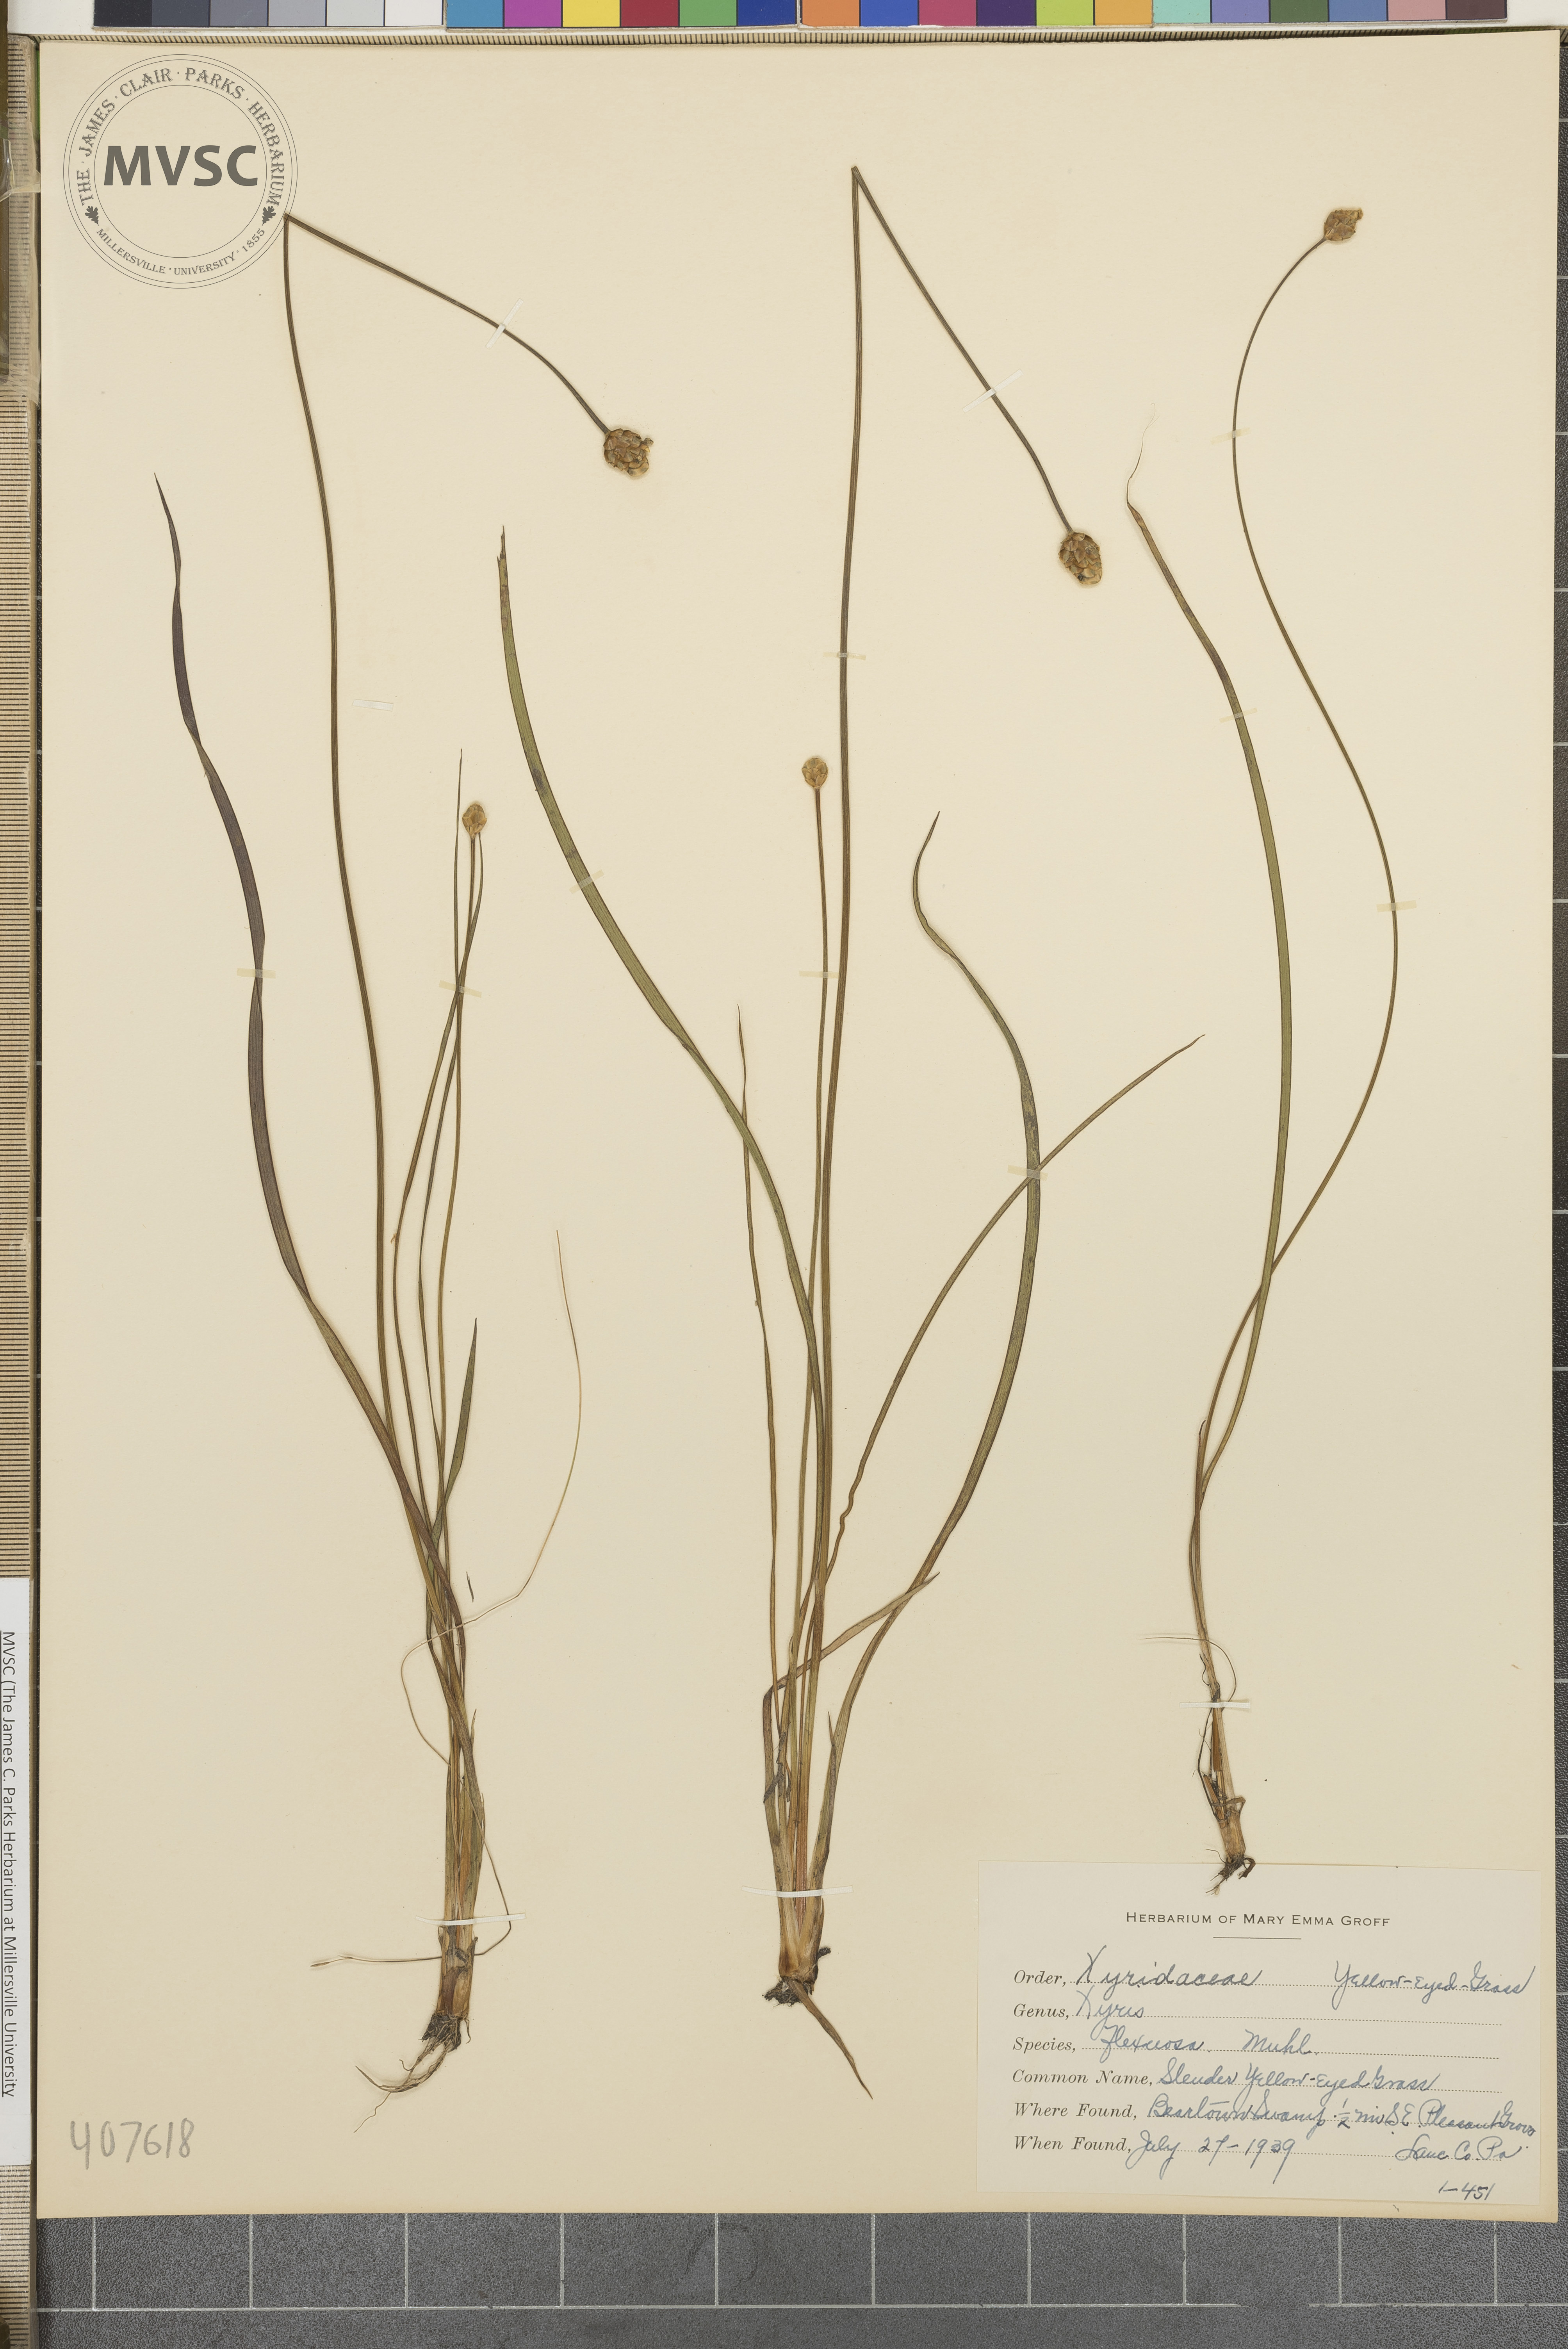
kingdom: Plantae
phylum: Tracheophyta
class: Liliopsida
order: Poales
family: Xyridaceae
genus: Xyris
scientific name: Xyris torta
